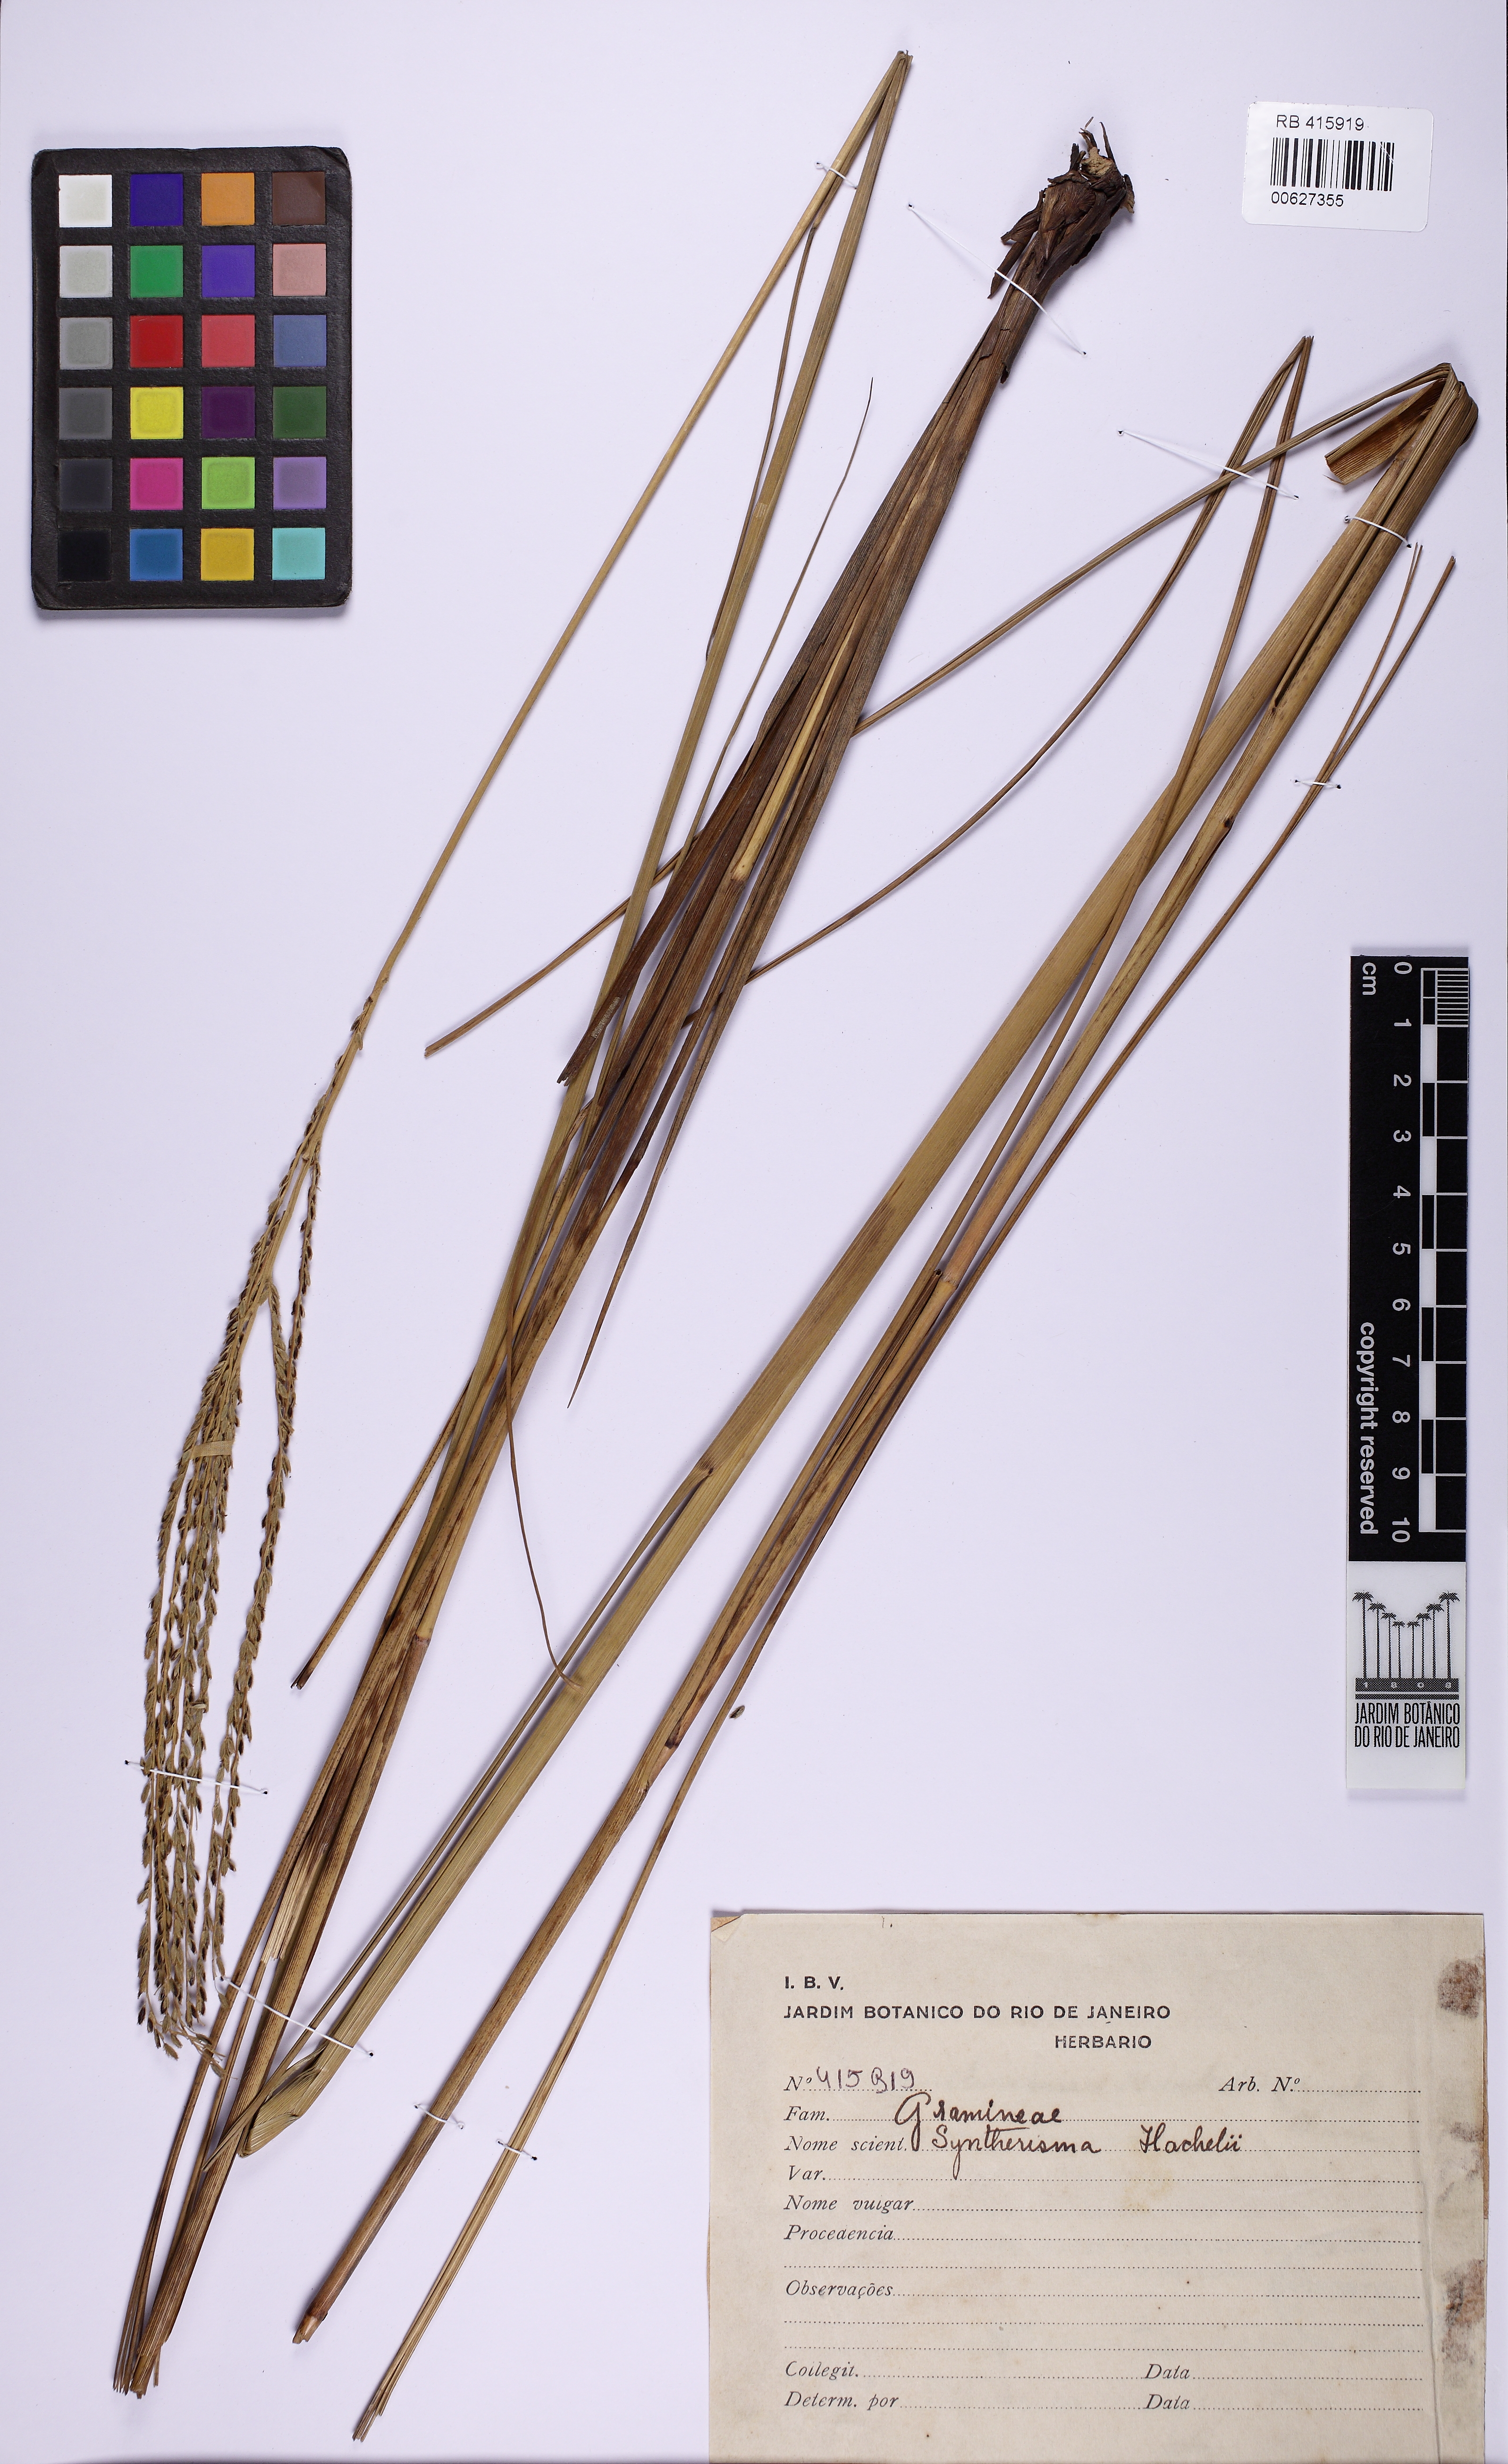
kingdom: Plantae
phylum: Tracheophyta
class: Liliopsida
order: Poales
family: Poaceae
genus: Digitaria
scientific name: Digitaria phaeothrix
